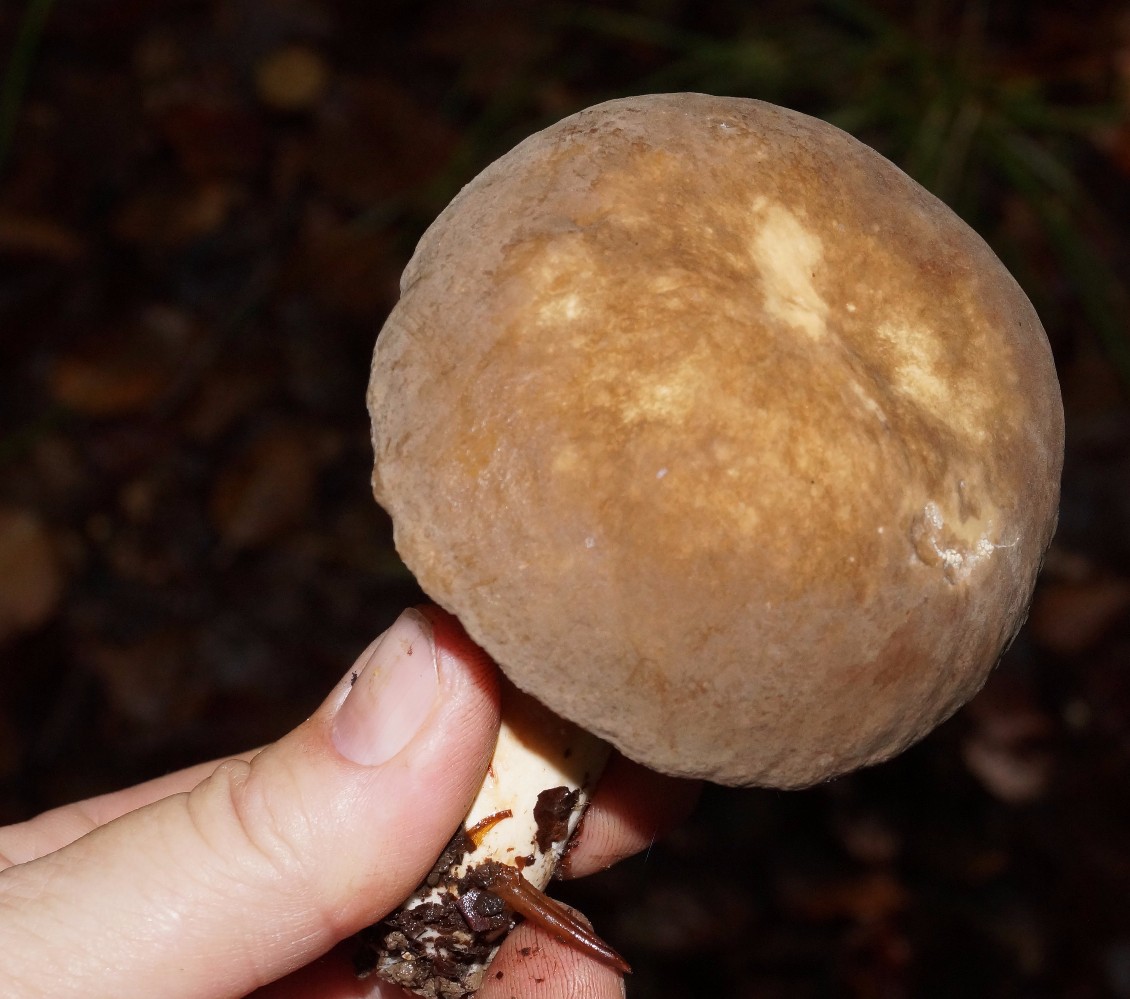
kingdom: Fungi
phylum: Basidiomycota
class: Agaricomycetes
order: Russulales
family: Russulaceae
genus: Lactarius
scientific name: Lactarius pterosporus
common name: vingesporet mælkehat
